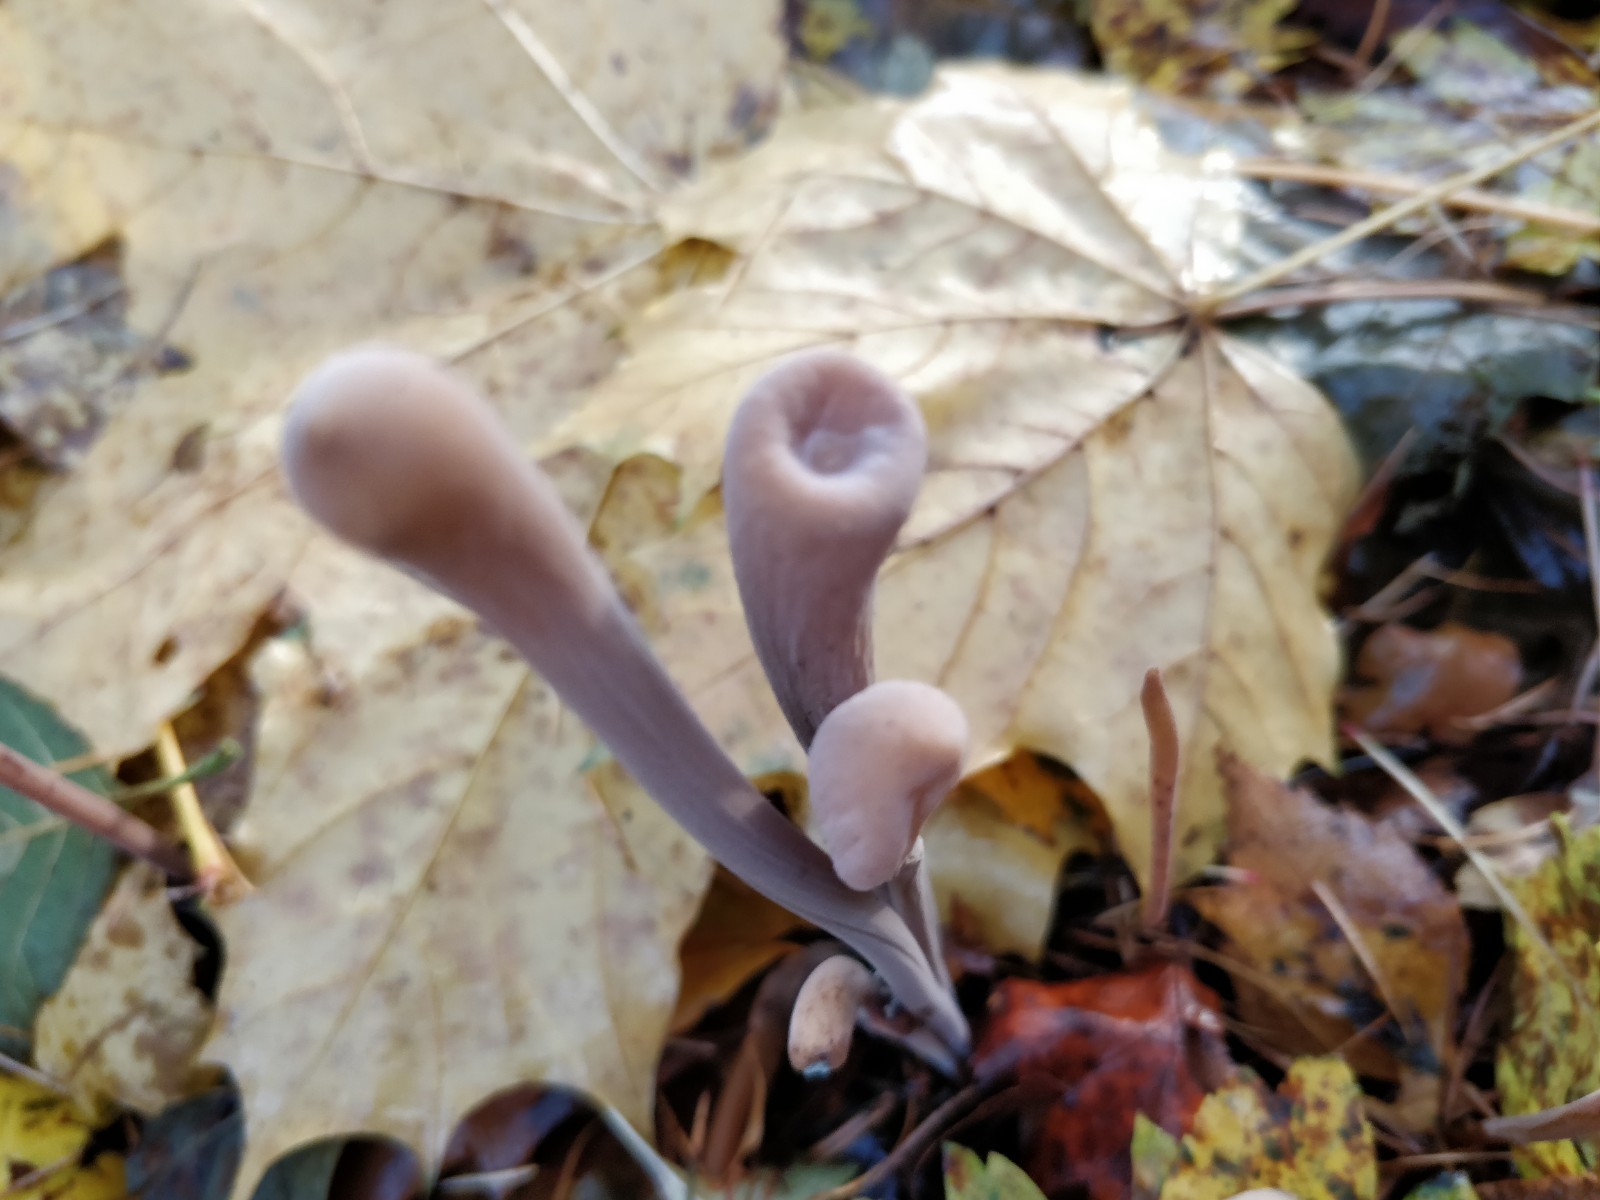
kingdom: Fungi
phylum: Basidiomycota
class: Agaricomycetes
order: Agaricales
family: Typhulaceae
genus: Typhula
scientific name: Typhula fistulosa
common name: pibet rørkølle
